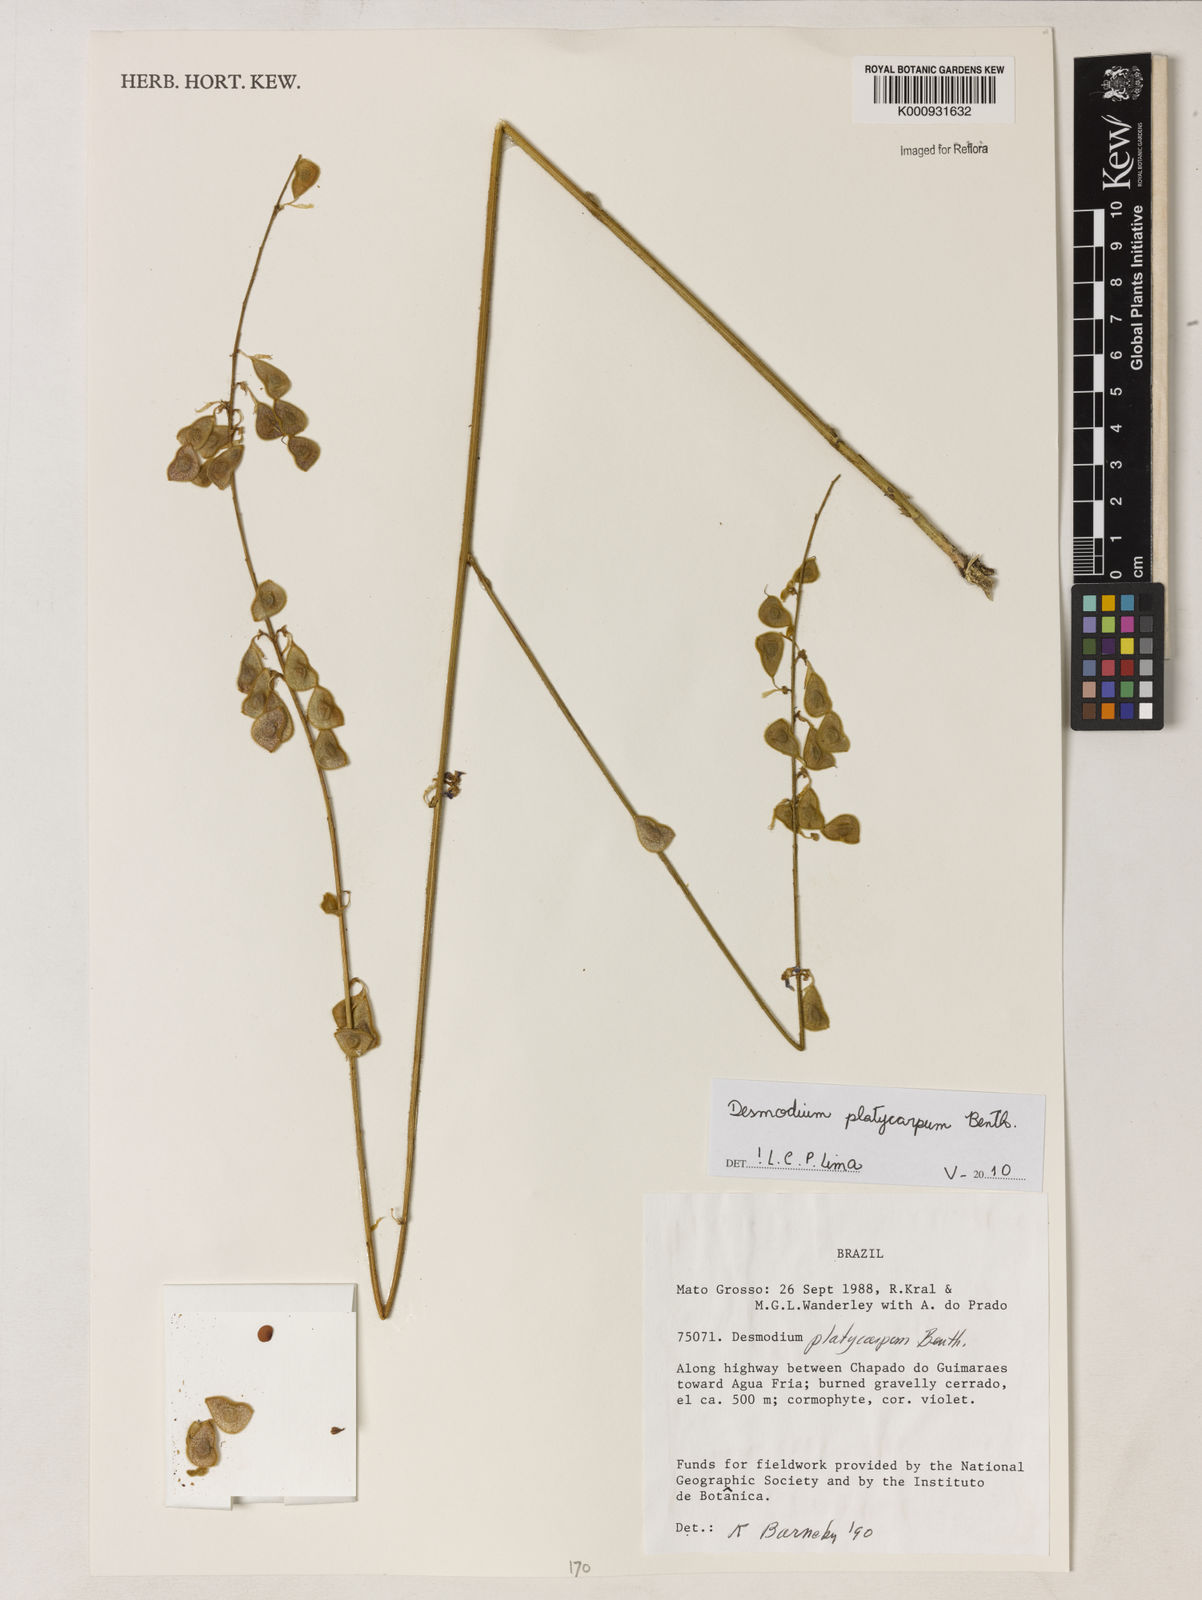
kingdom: Plantae
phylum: Tracheophyta
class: Magnoliopsida
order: Fabales
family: Fabaceae
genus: Desmodium
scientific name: Desmodium platycarpum
